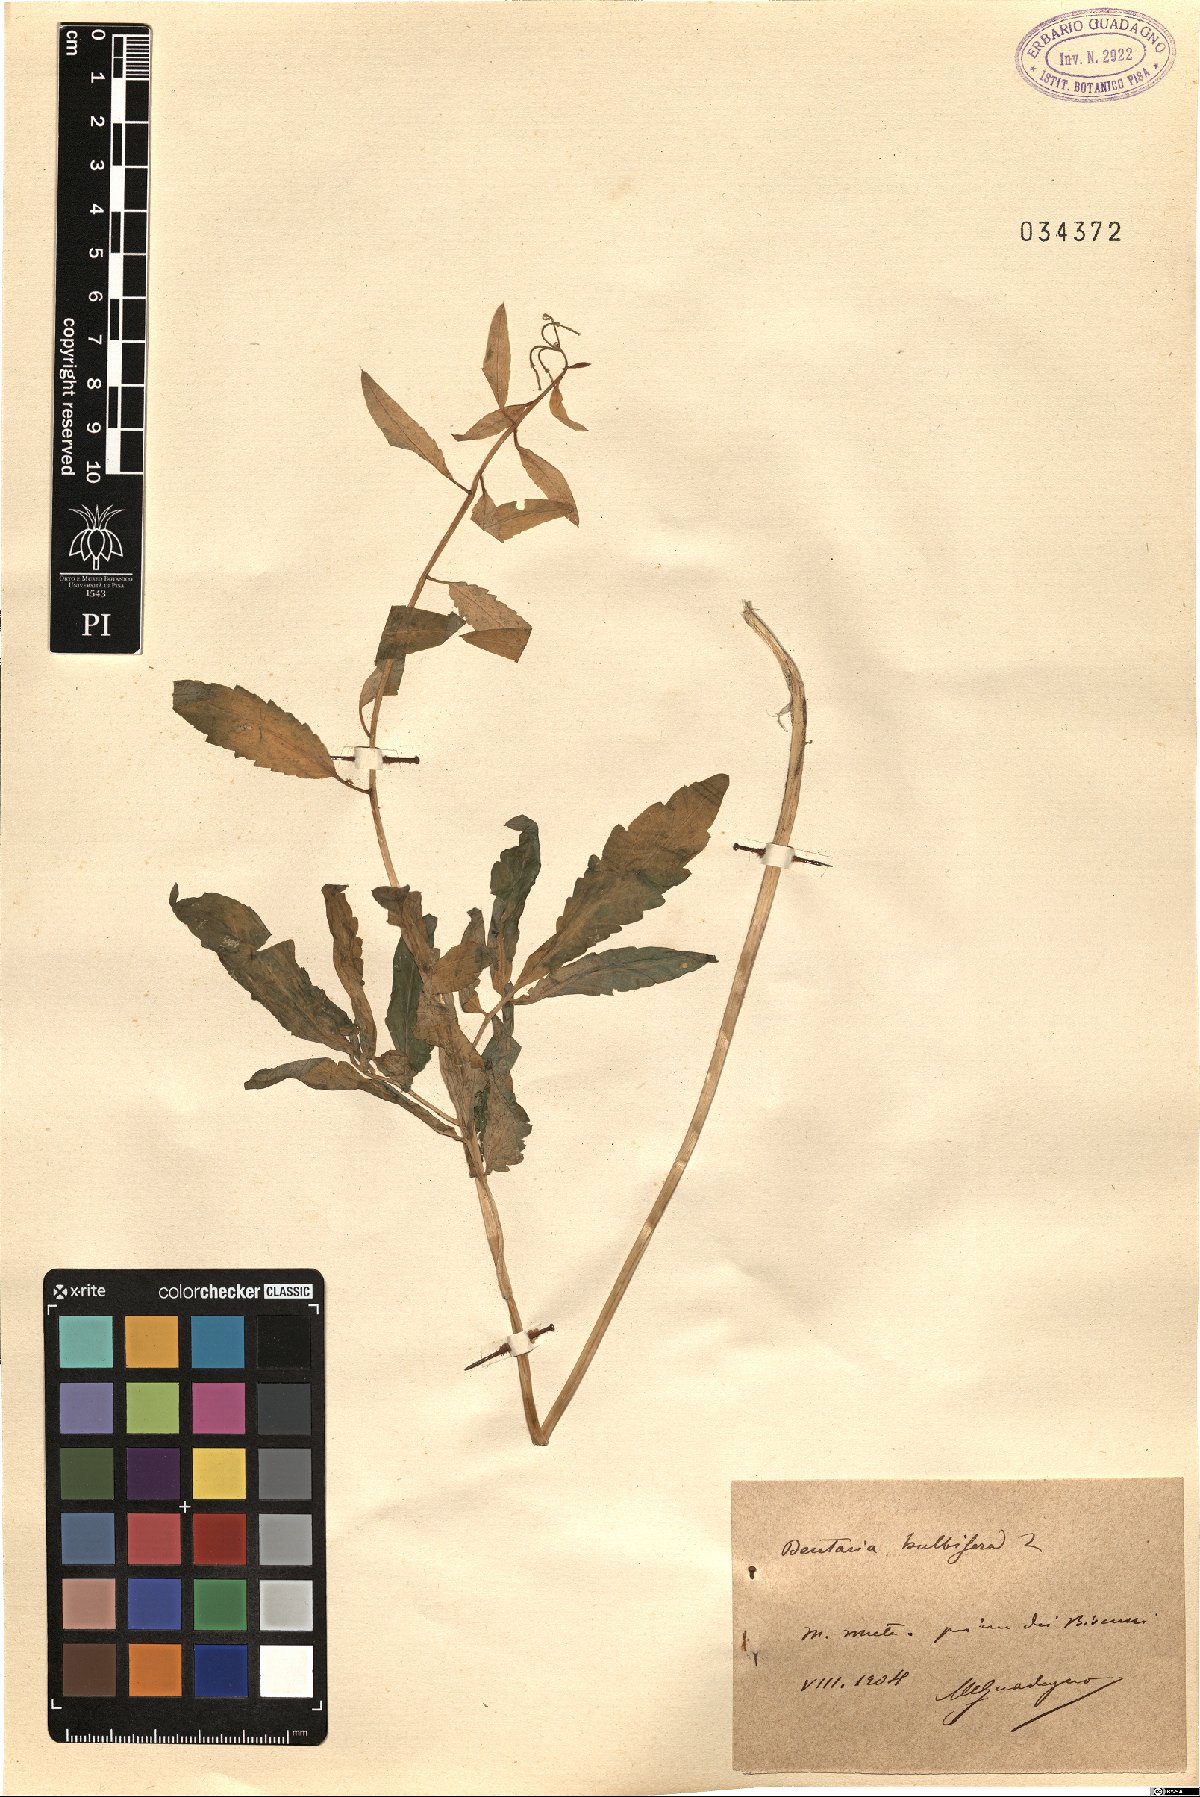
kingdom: Plantae
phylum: Tracheophyta
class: Magnoliopsida
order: Brassicales
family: Brassicaceae
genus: Cardamine
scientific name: Cardamine bulbifera
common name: Coralroot bittercress
